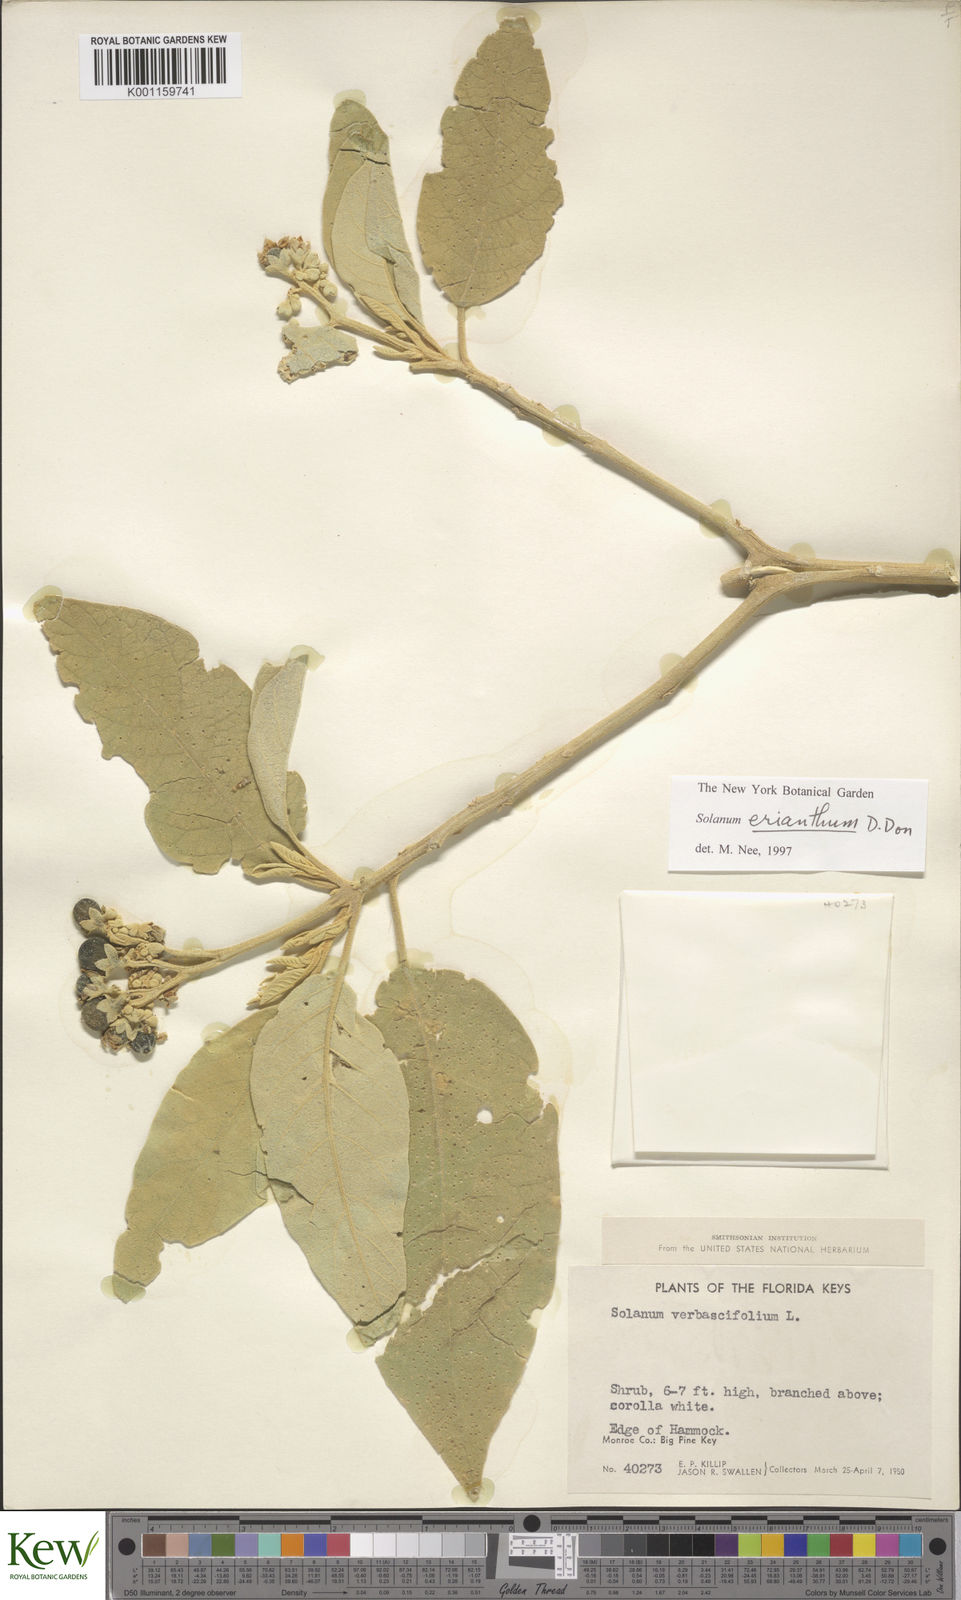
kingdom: Plantae
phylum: Tracheophyta
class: Magnoliopsida
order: Solanales
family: Solanaceae
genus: Solanum
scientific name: Solanum donianum
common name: Mullein nightshade
